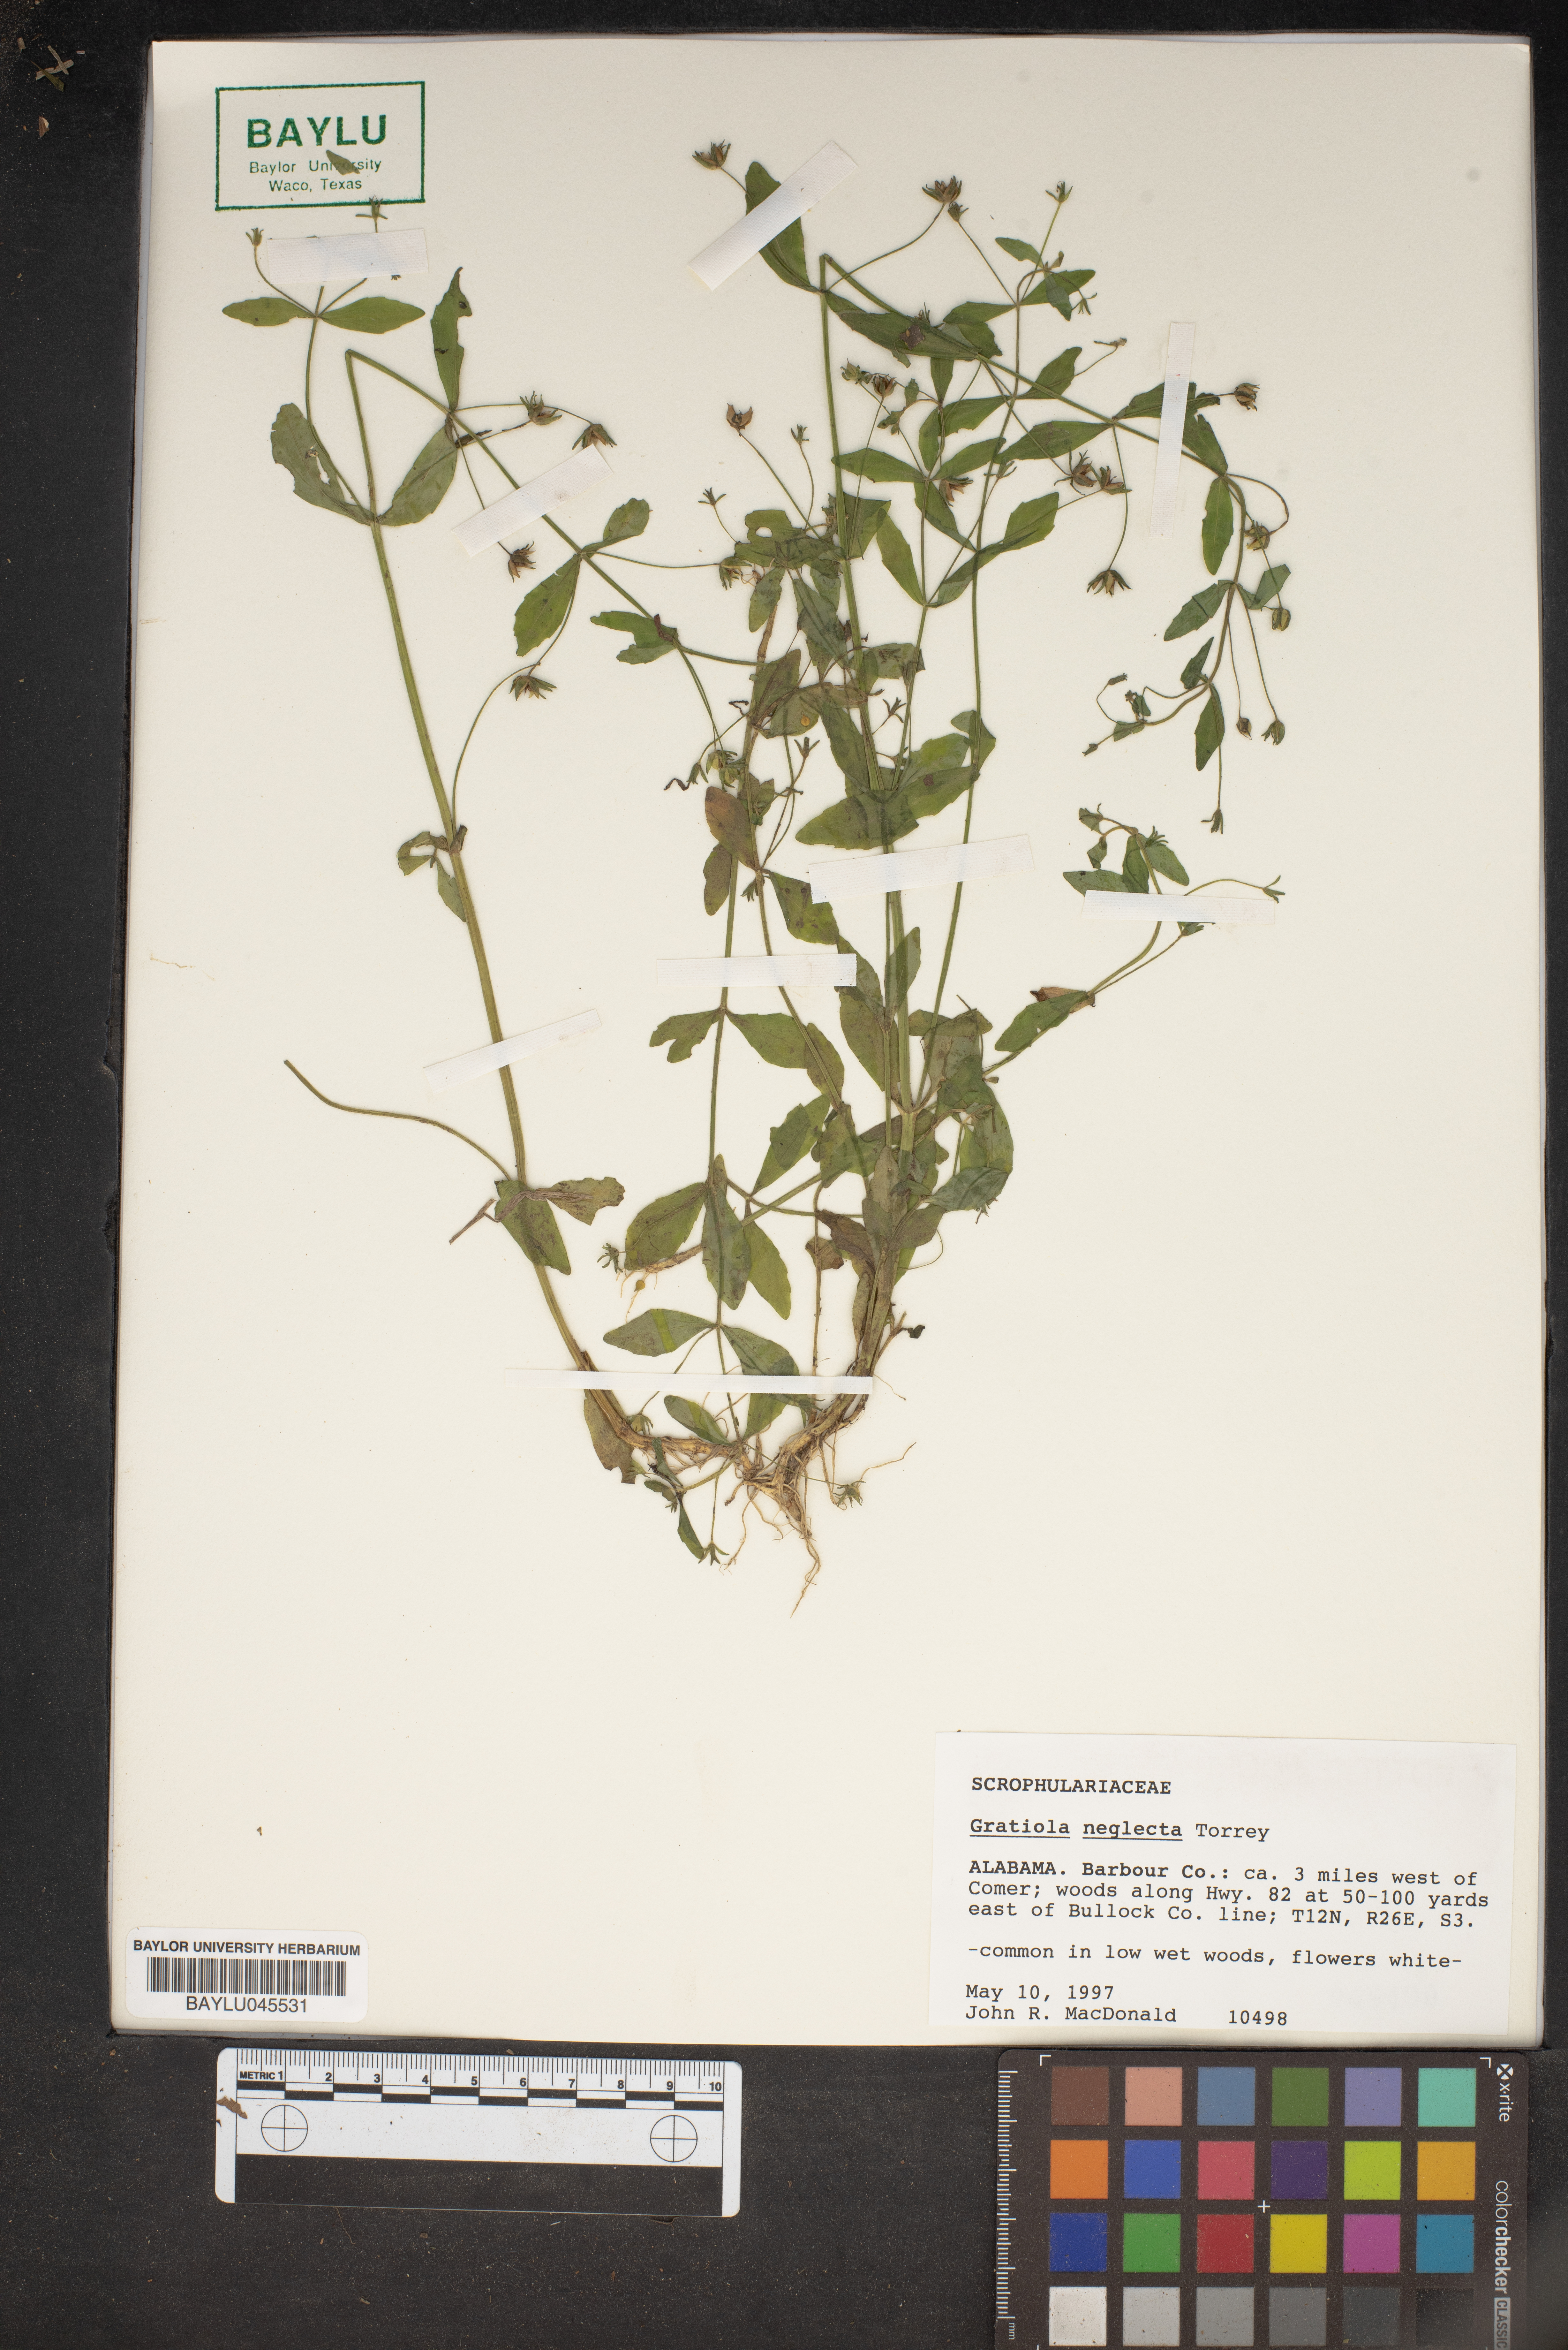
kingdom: Plantae
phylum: Tracheophyta
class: Magnoliopsida
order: Lamiales
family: Plantaginaceae
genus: Gratiola
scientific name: Gratiola neglecta
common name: American hedge-hyssop
